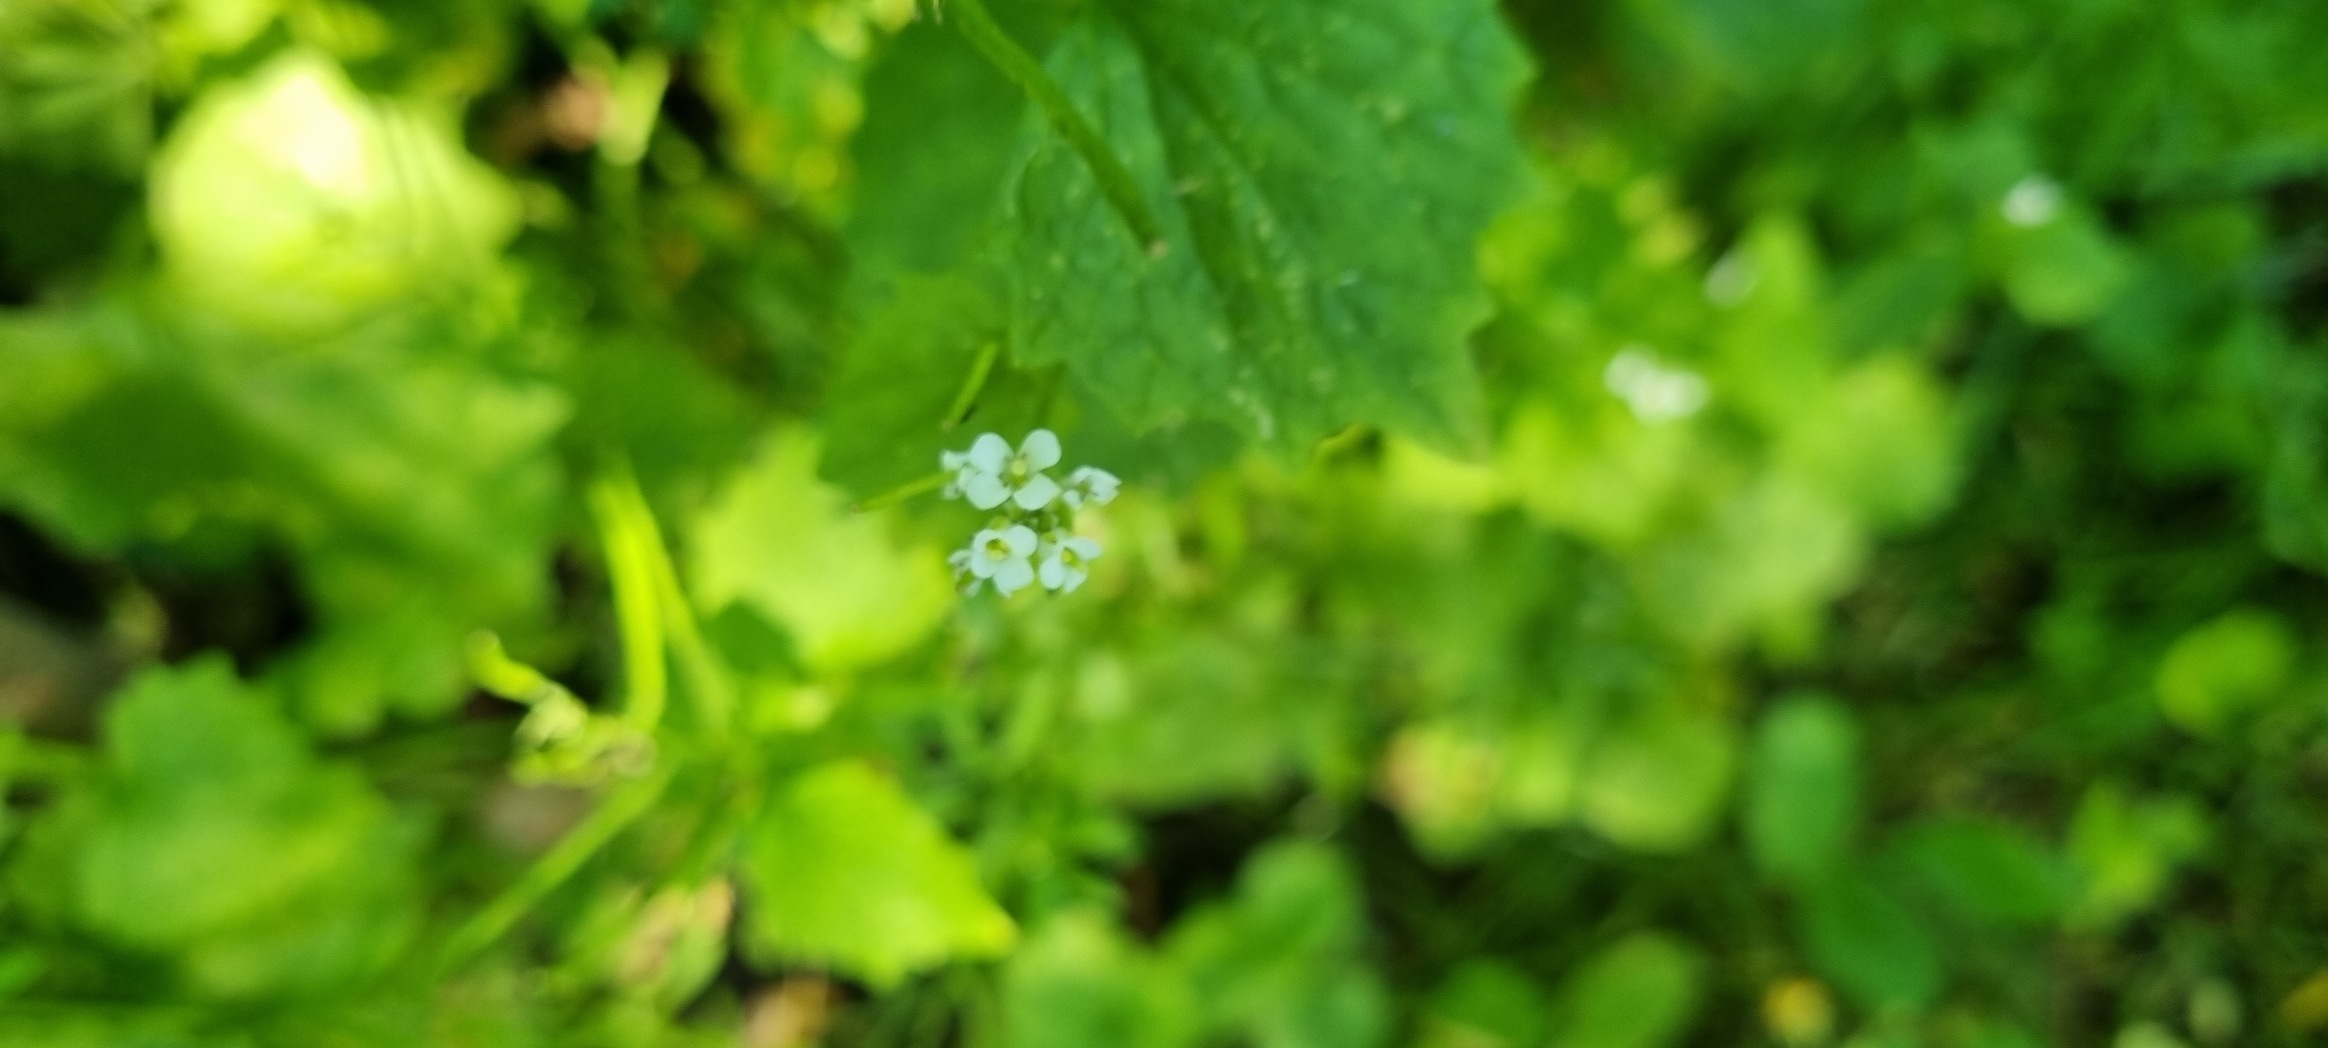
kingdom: Plantae
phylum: Tracheophyta
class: Magnoliopsida
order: Brassicales
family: Brassicaceae
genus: Alliaria
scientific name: Alliaria petiolata
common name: Løgkarse
